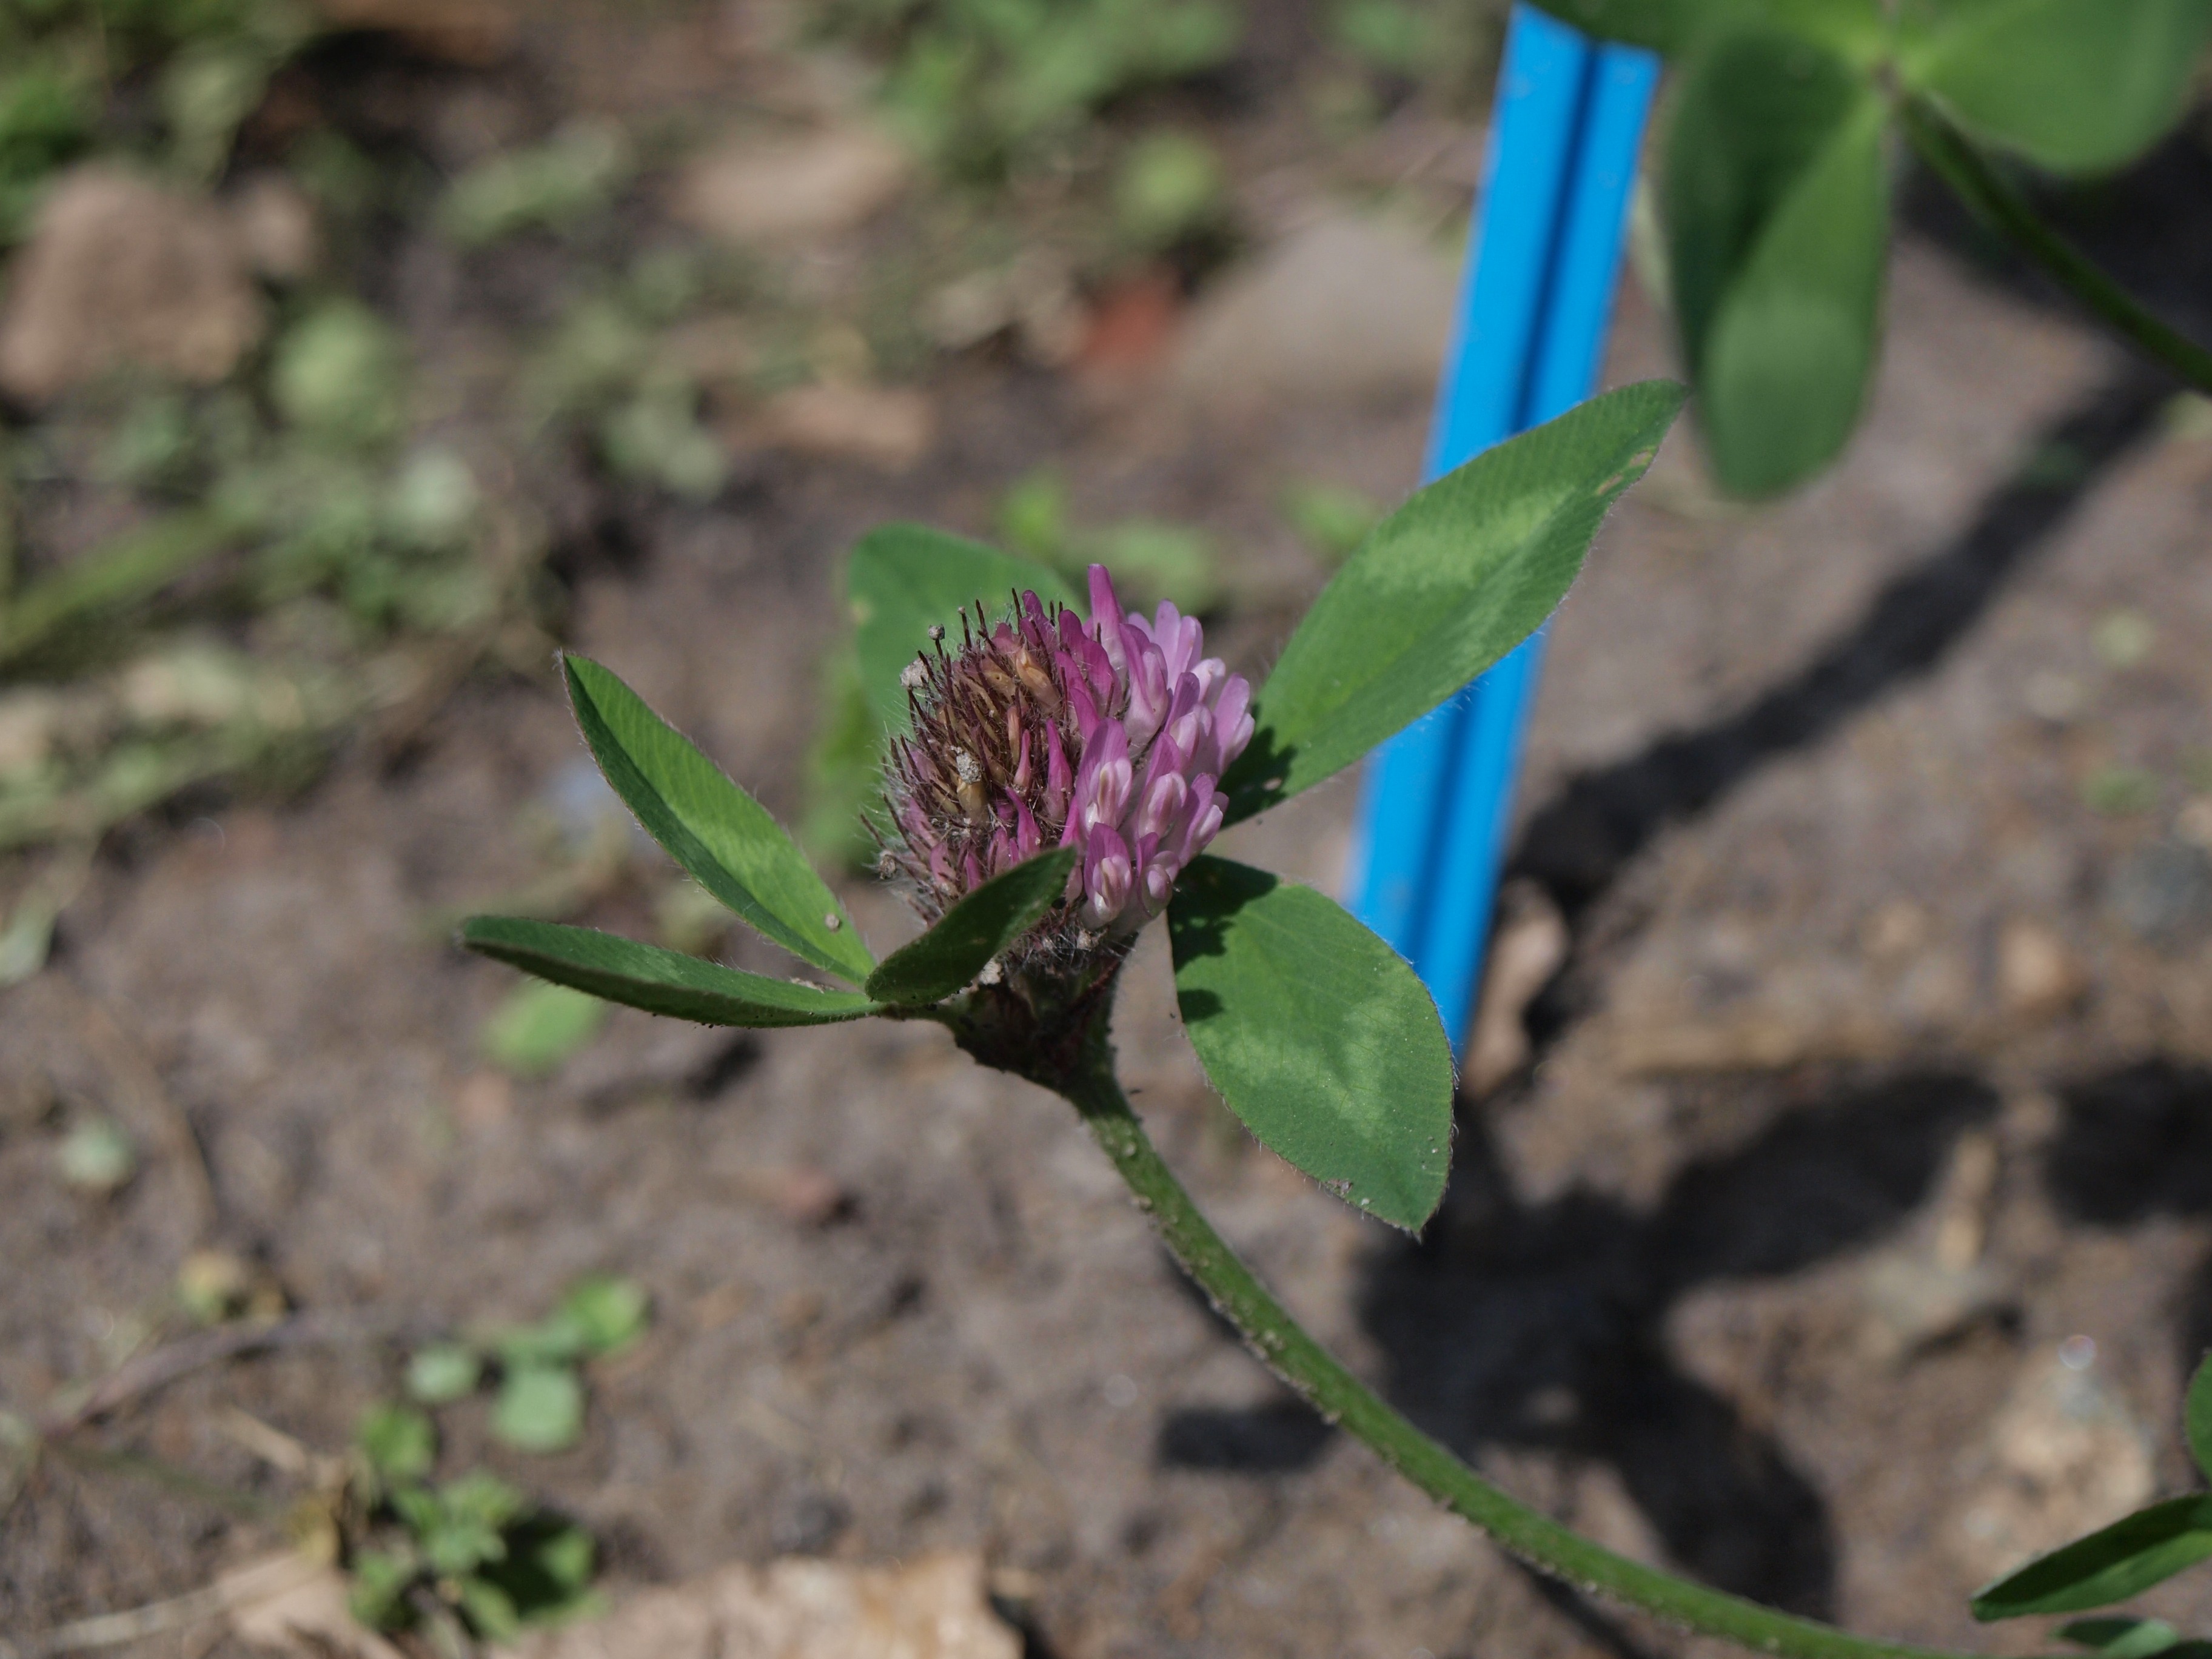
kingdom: Plantae
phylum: Tracheophyta
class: Magnoliopsida
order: Fabales
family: Fabaceae
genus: Trifolium
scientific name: Trifolium pratense
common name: Red clover
